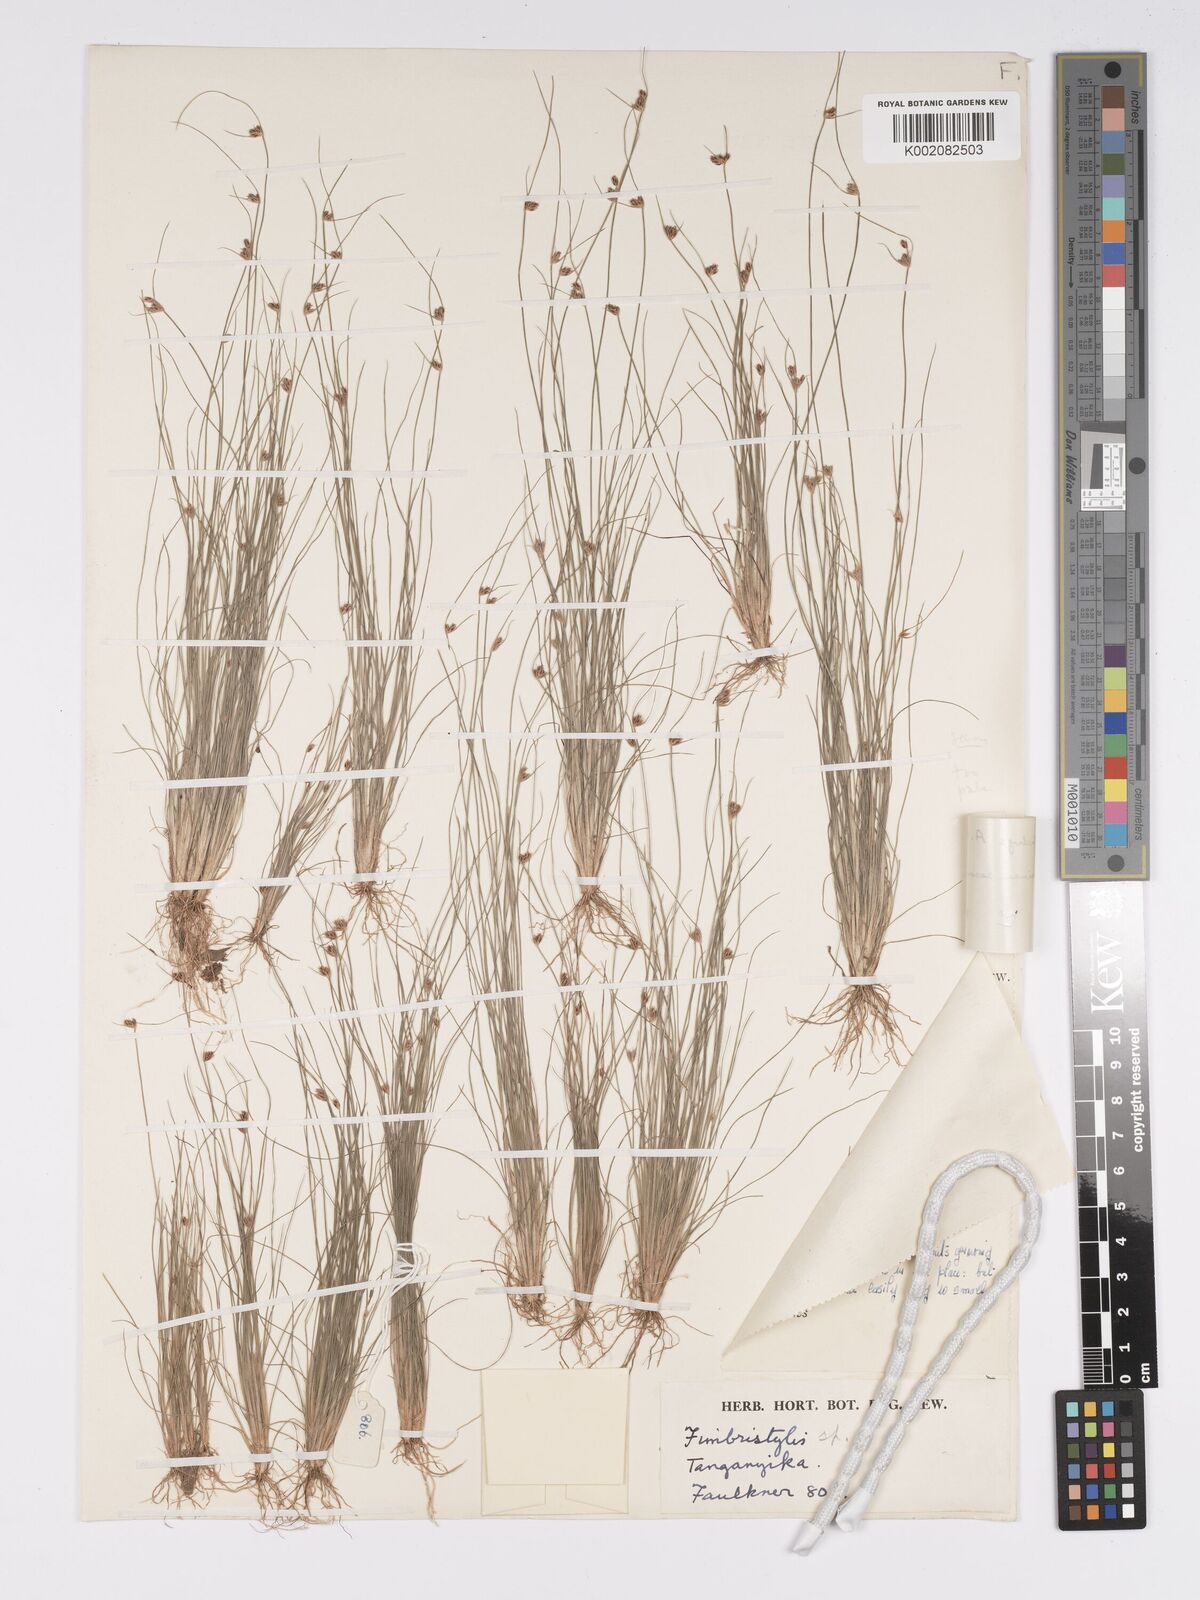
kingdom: Plantae
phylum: Tracheophyta
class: Liliopsida
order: Poales
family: Cyperaceae
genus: Bulbostylis
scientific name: Bulbostylis oligostachys
